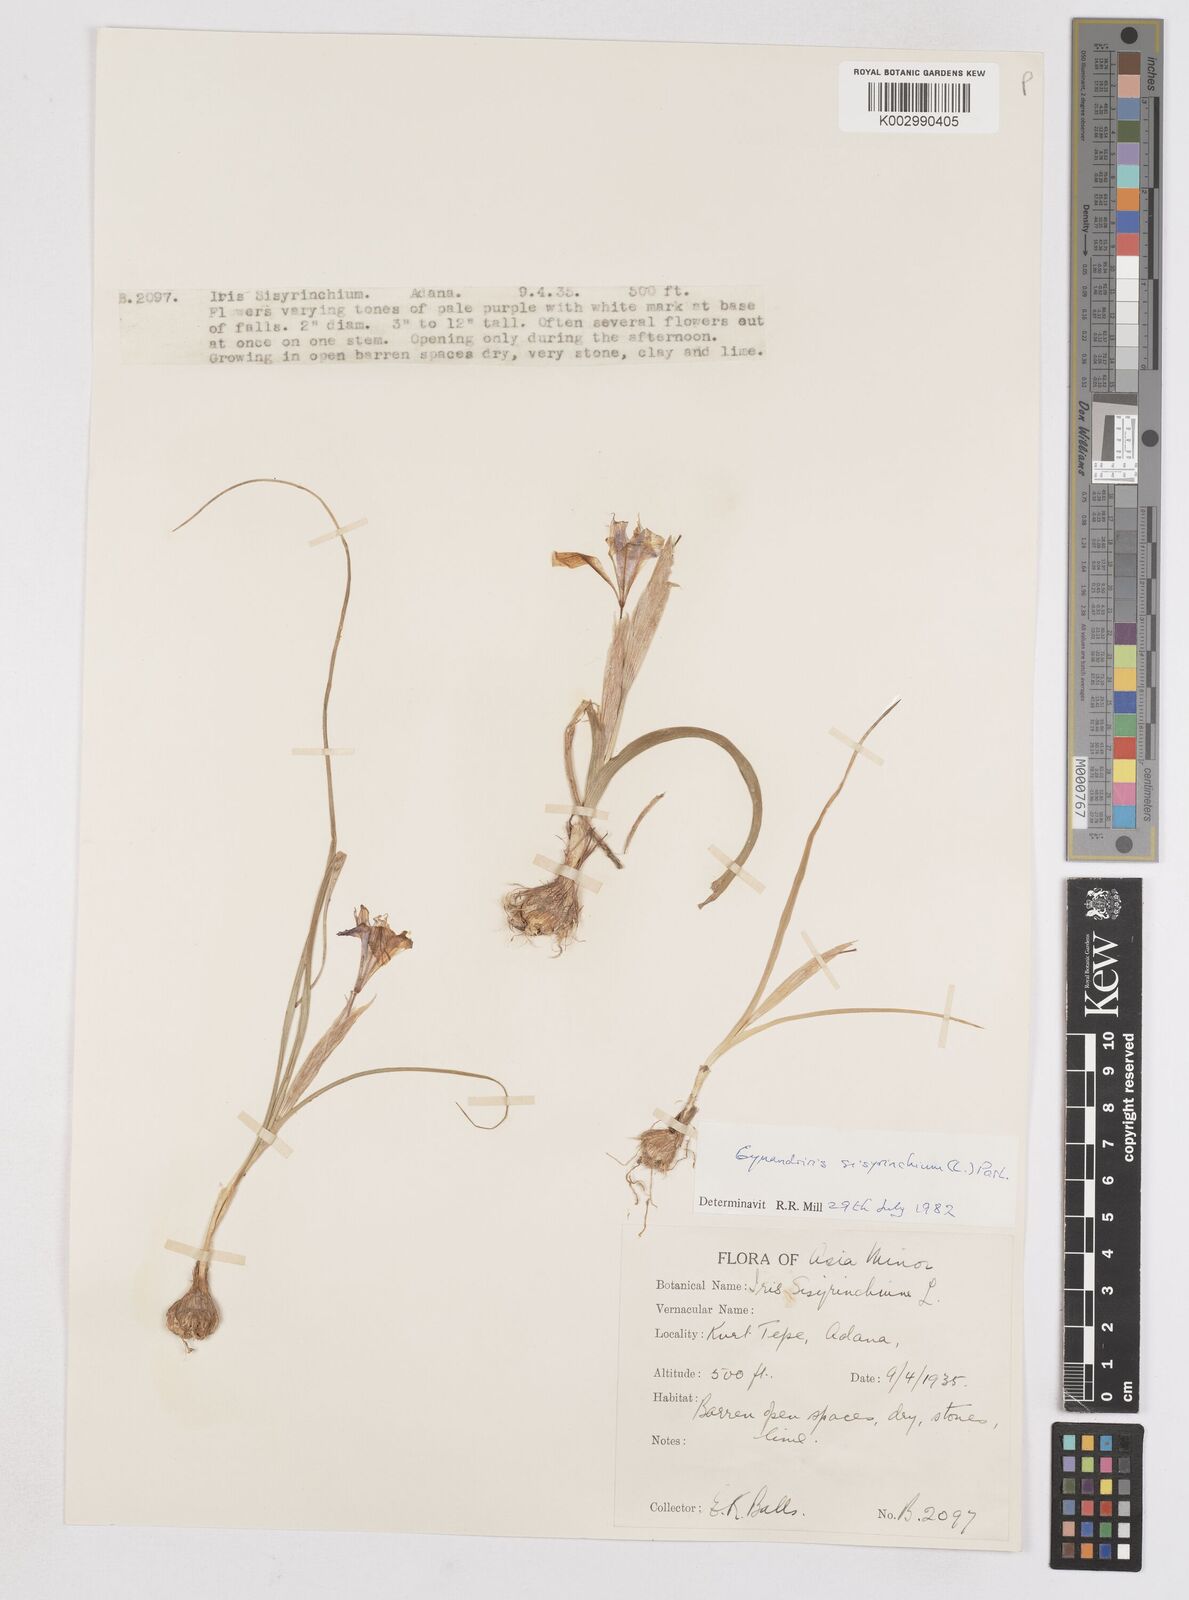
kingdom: Plantae
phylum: Tracheophyta
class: Liliopsida
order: Asparagales
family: Iridaceae
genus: Moraea
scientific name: Moraea sisyrinchium
